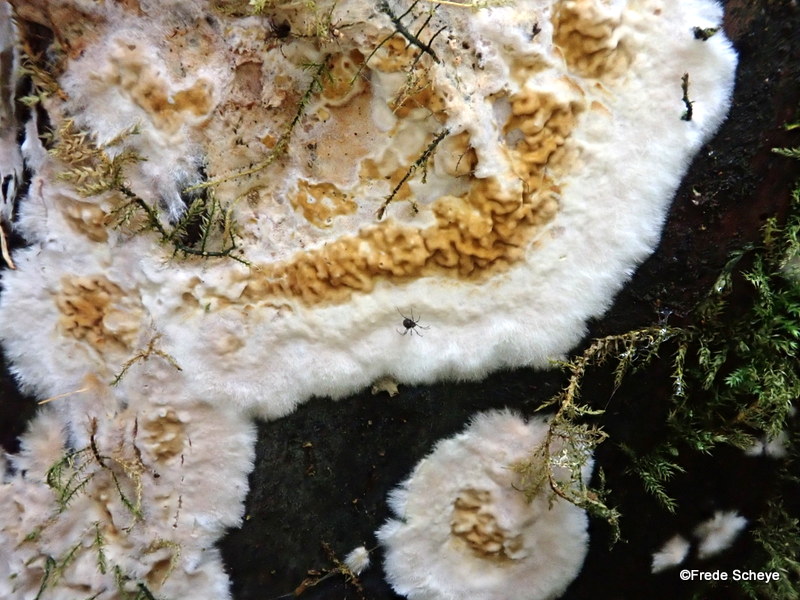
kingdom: Fungi
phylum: Basidiomycota
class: Agaricomycetes
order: Boletales
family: Serpulaceae
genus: Serpula
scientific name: Serpula himantioides
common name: tyndkødet hussvamp
